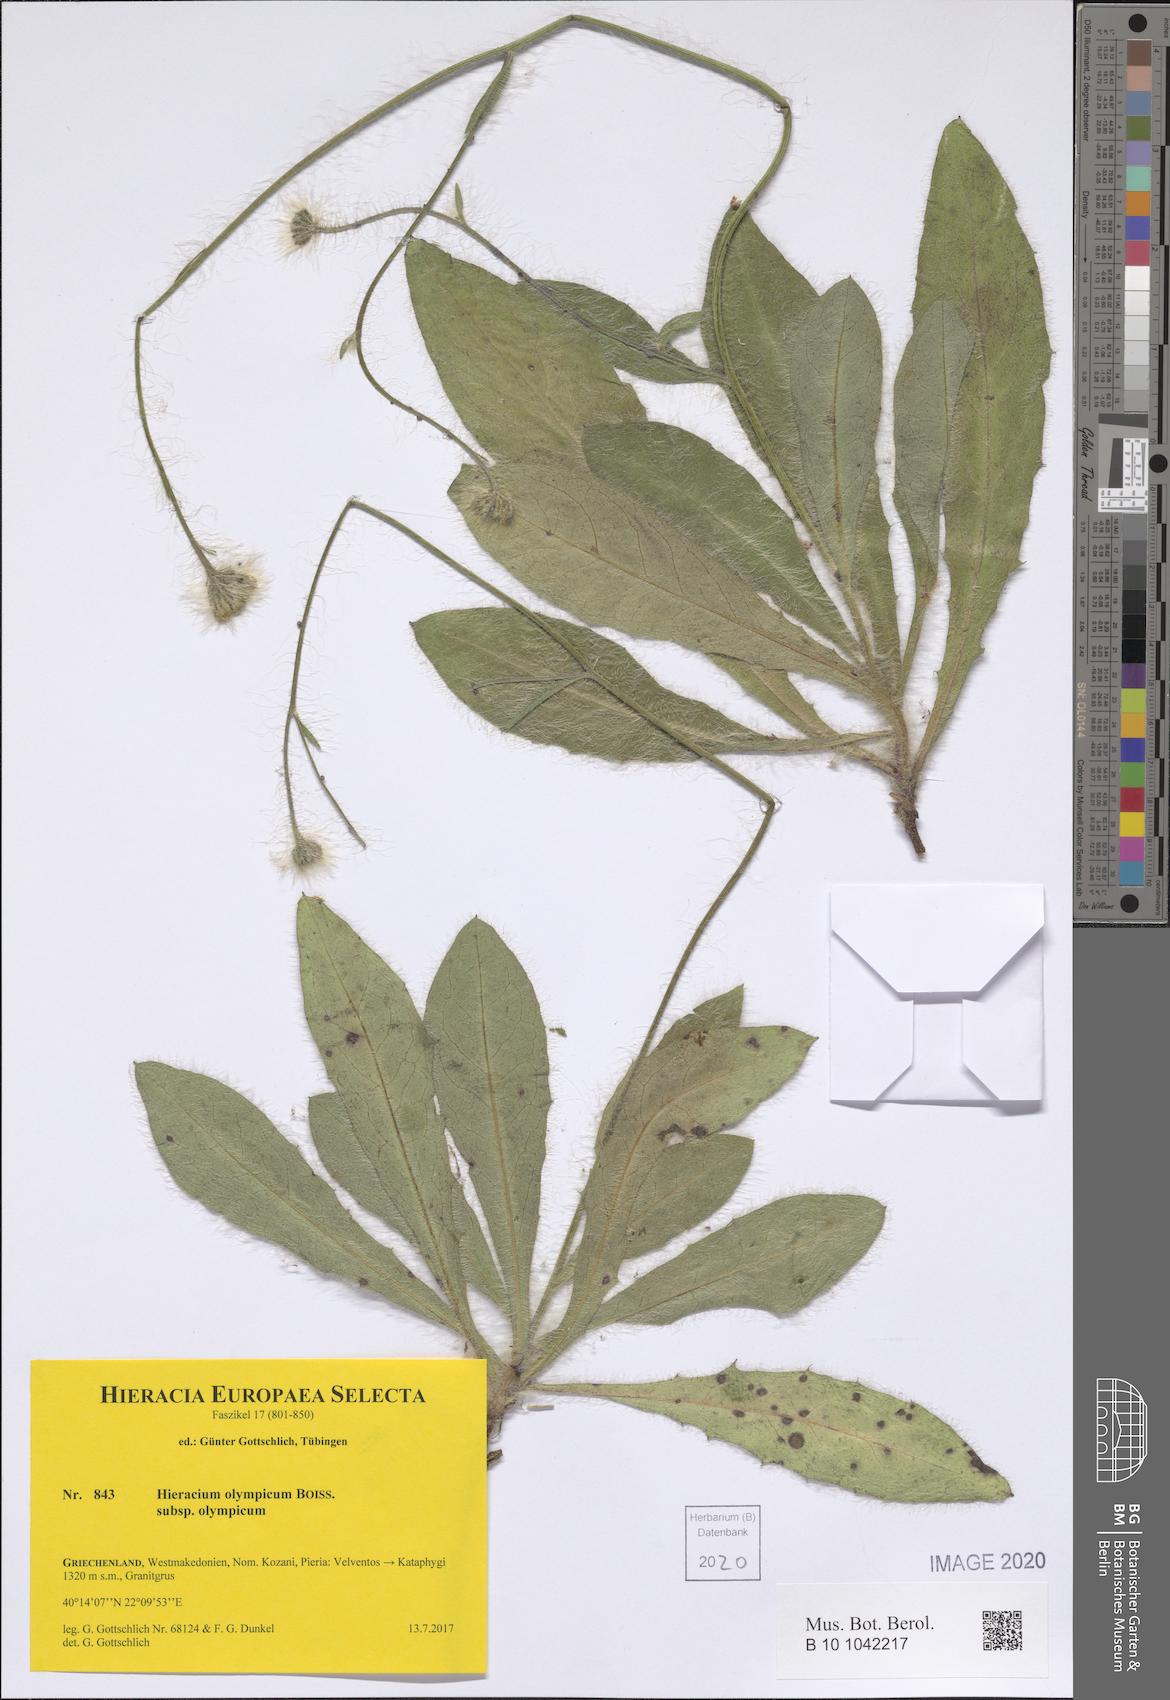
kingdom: Plantae
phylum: Tracheophyta
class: Magnoliopsida
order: Asterales
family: Asteraceae
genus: Hieracium
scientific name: Hieracium olympicum
